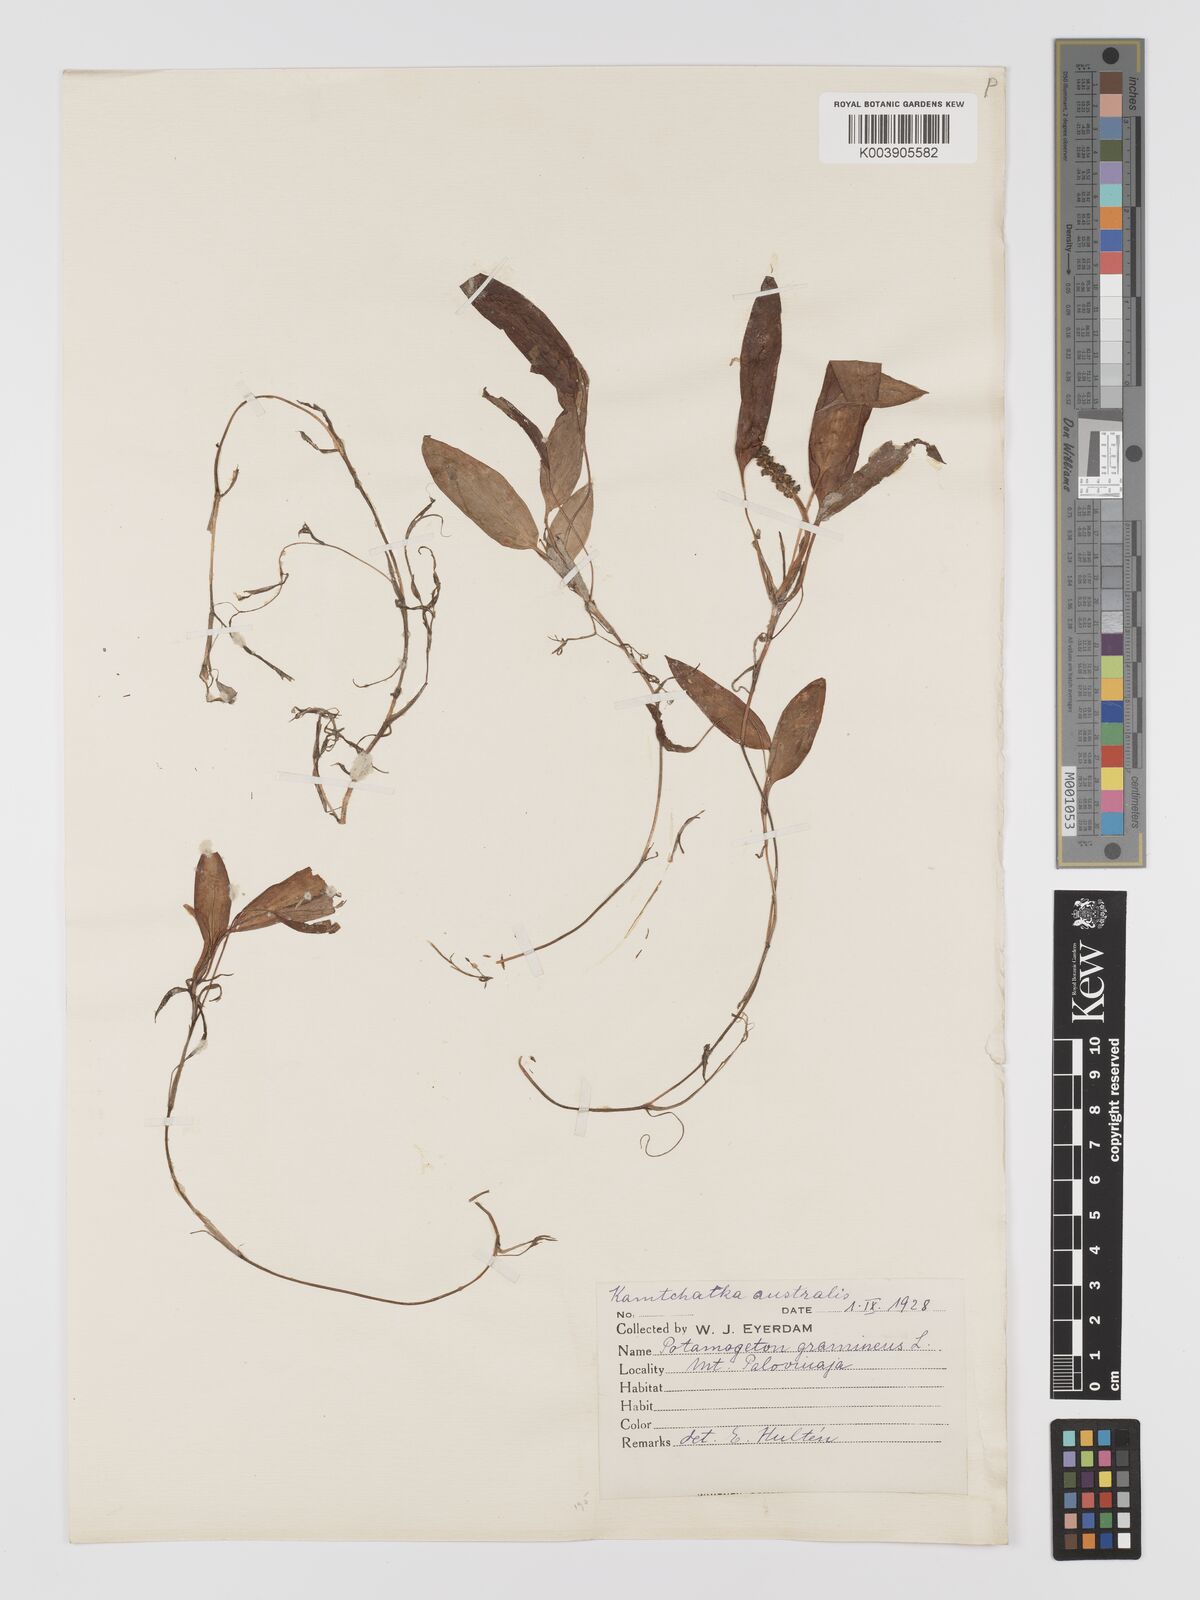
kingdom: Plantae
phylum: Tracheophyta
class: Liliopsida
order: Alismatales
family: Potamogetonaceae
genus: Potamogeton
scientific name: Potamogeton gramineus
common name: Various-leaved pondweed
